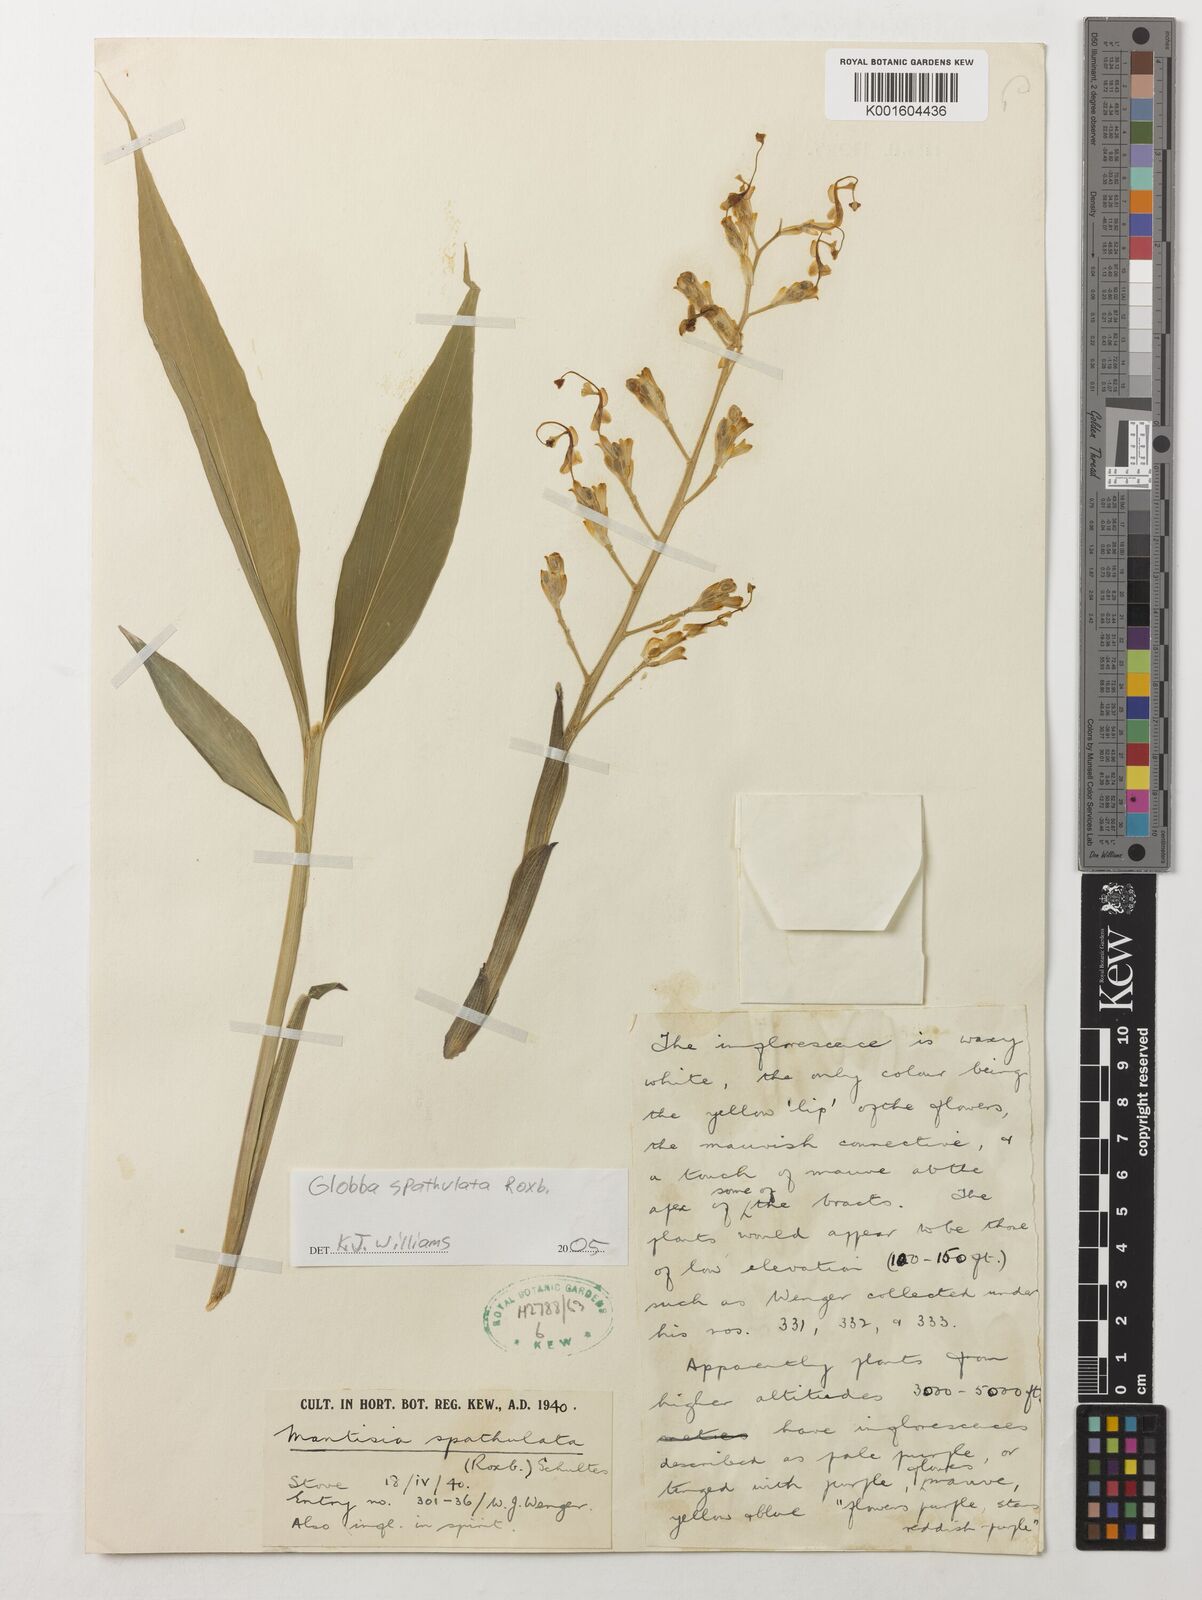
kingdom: Plantae
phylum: Tracheophyta
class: Liliopsida
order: Zingiberales
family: Zingiberaceae
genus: Globba
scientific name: Globba spathulata
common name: Dancing girl flower
